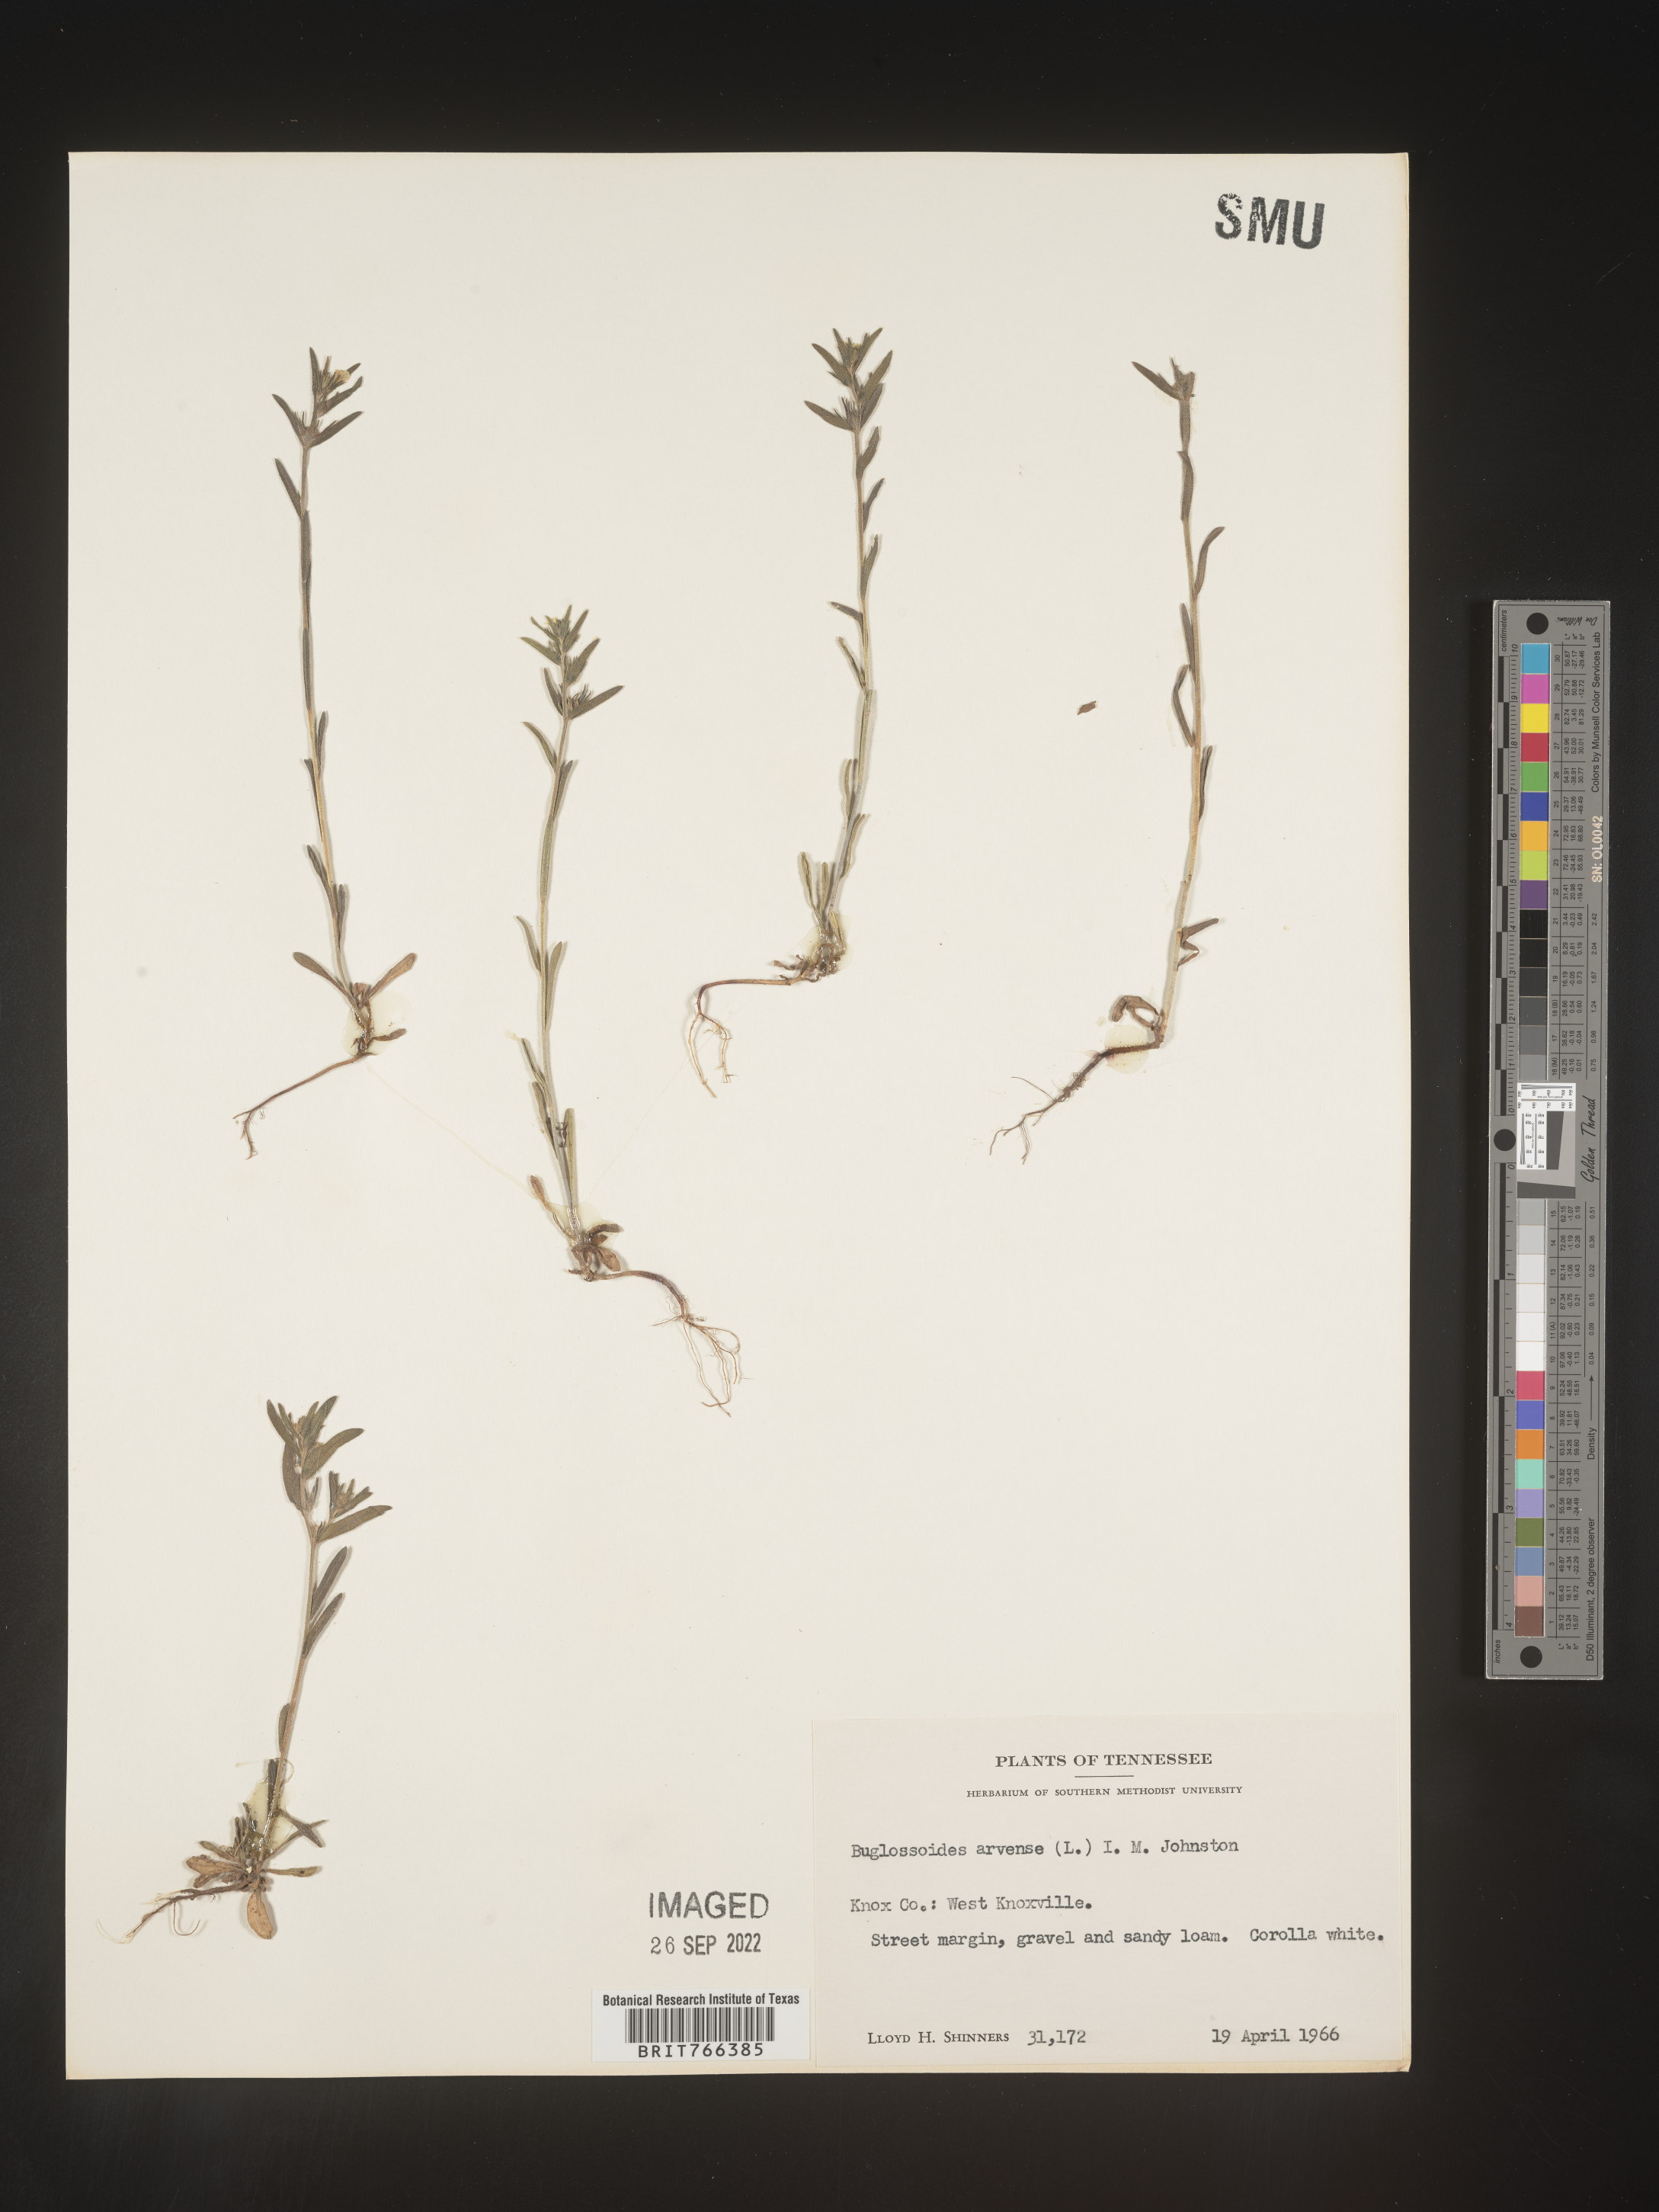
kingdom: Plantae
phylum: Tracheophyta
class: Magnoliopsida
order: Boraginales
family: Boraginaceae
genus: Buglossoides
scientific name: Buglossoides arvensis
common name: Corn gromwell
